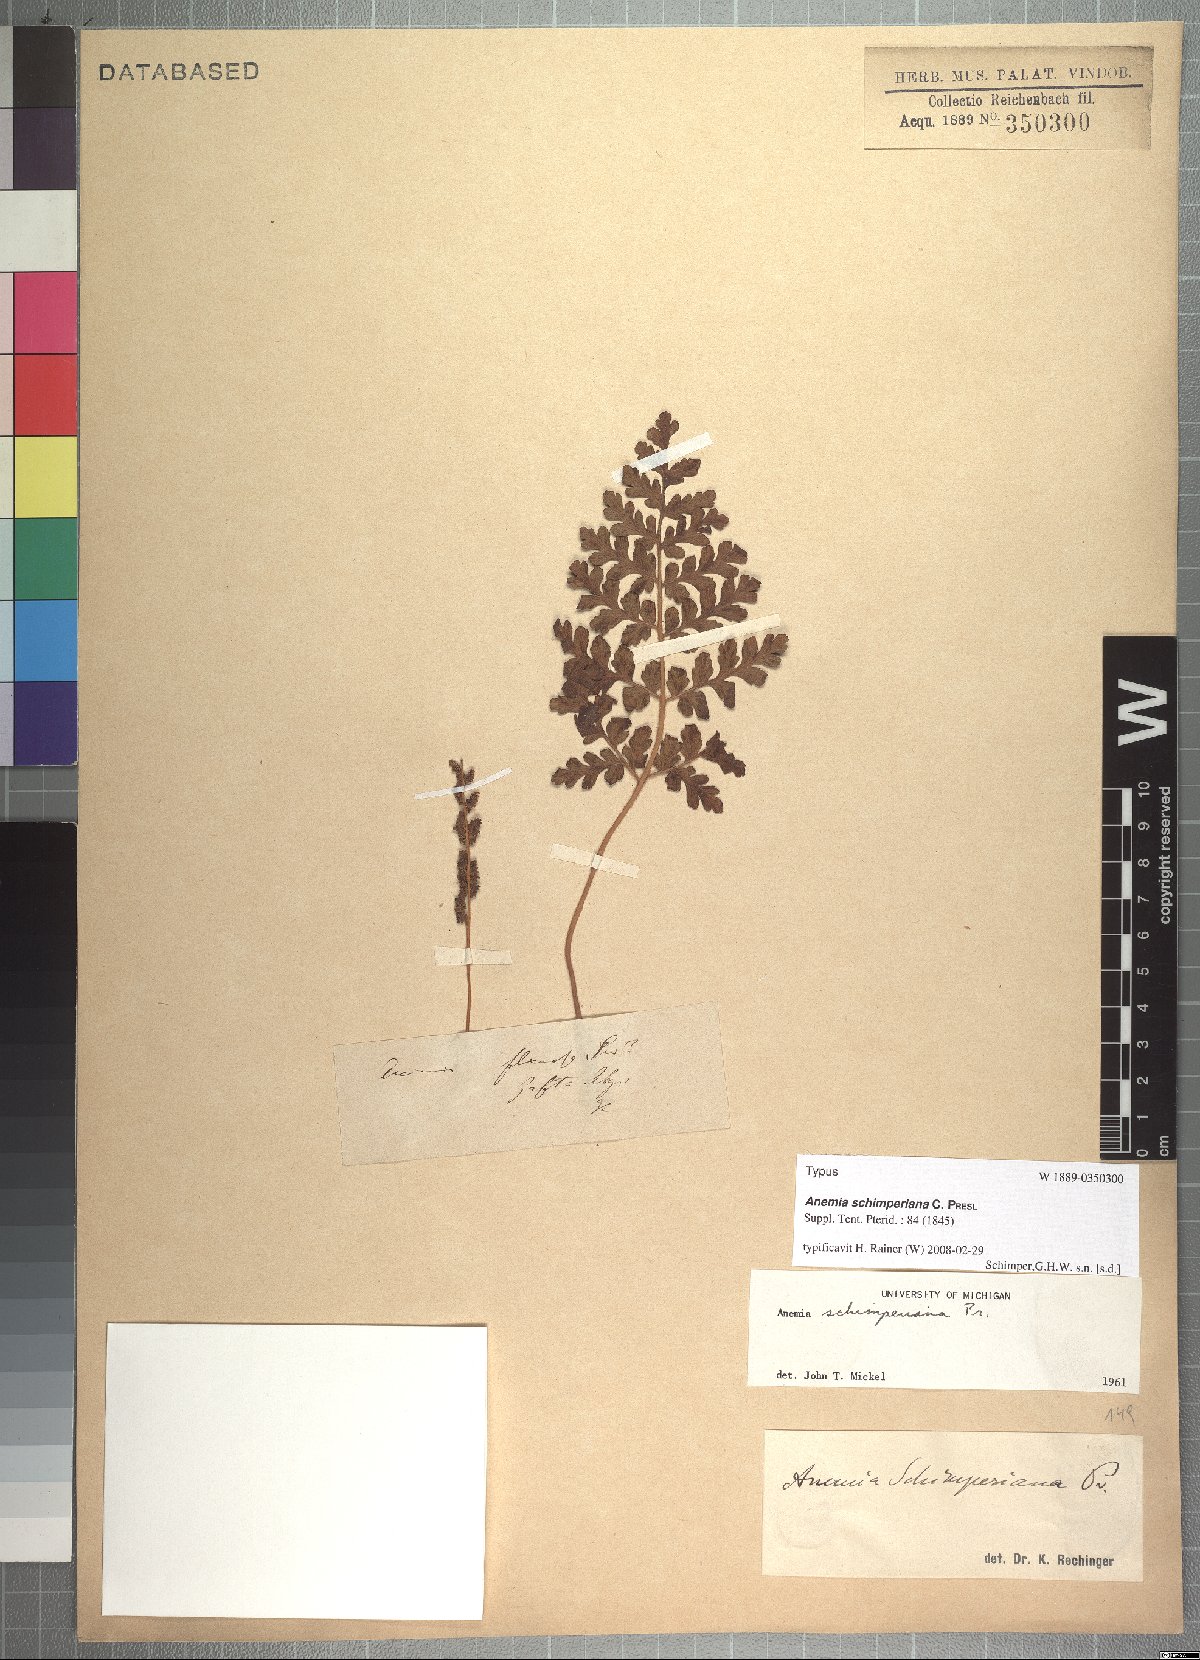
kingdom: Plantae
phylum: Tracheophyta
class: Polypodiopsida
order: Schizaeales
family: Anemiaceae
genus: Anemia
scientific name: Anemia schimperiana
